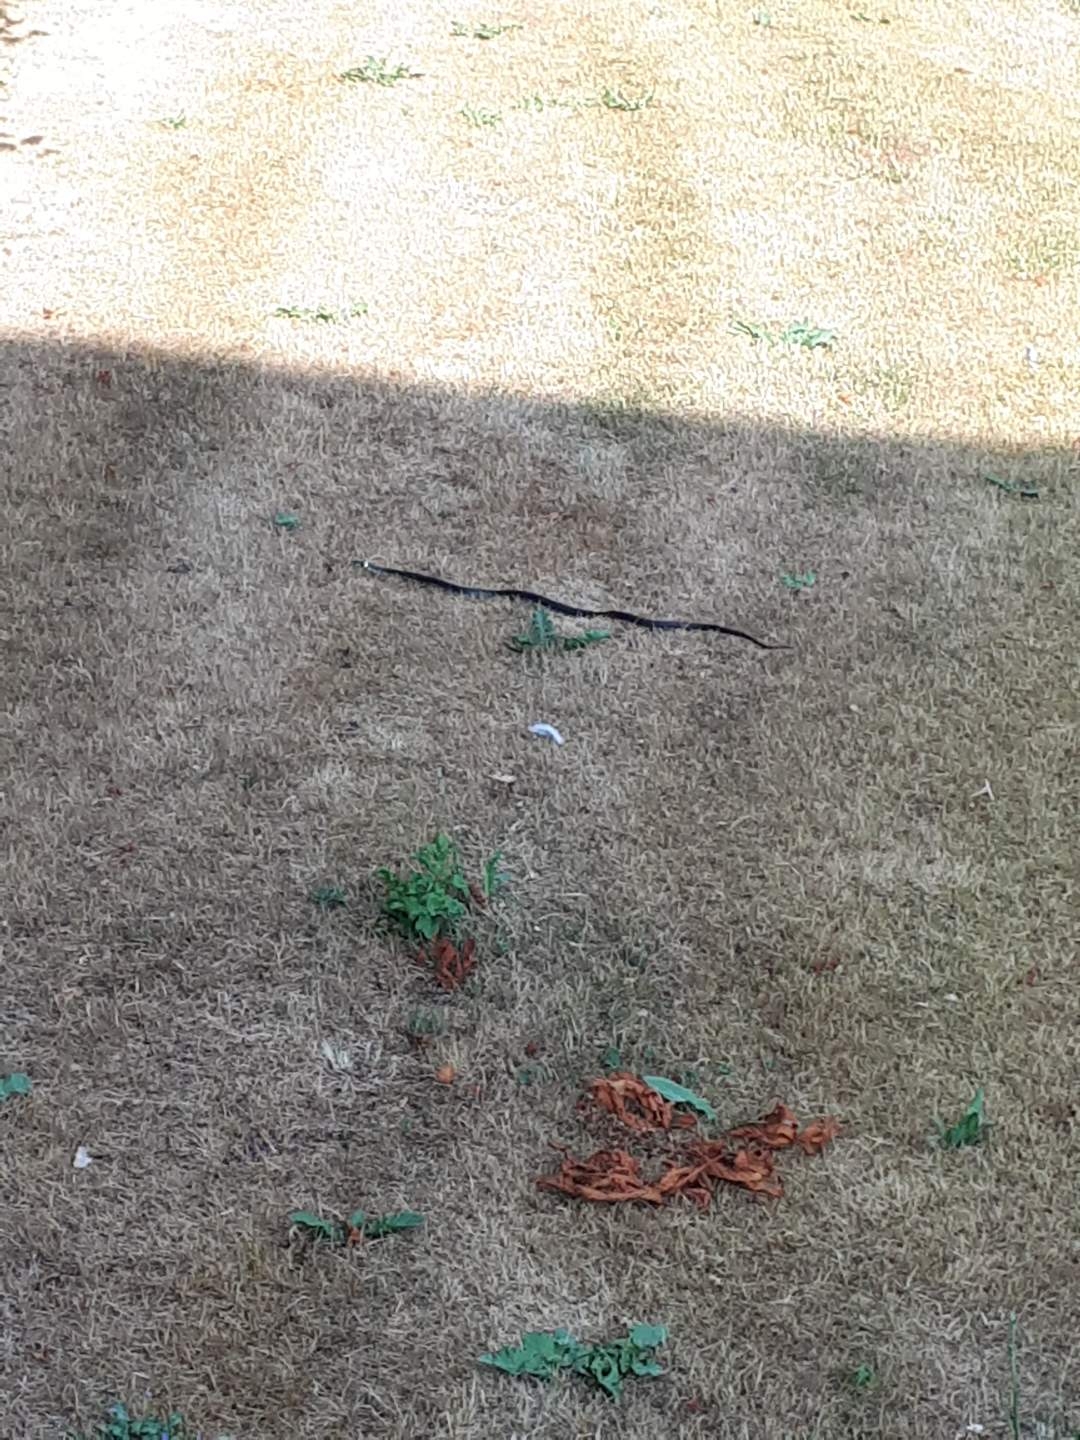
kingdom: Animalia
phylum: Chordata
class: Squamata
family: Colubridae
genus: Natrix
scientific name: Natrix natrix
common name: Snog
